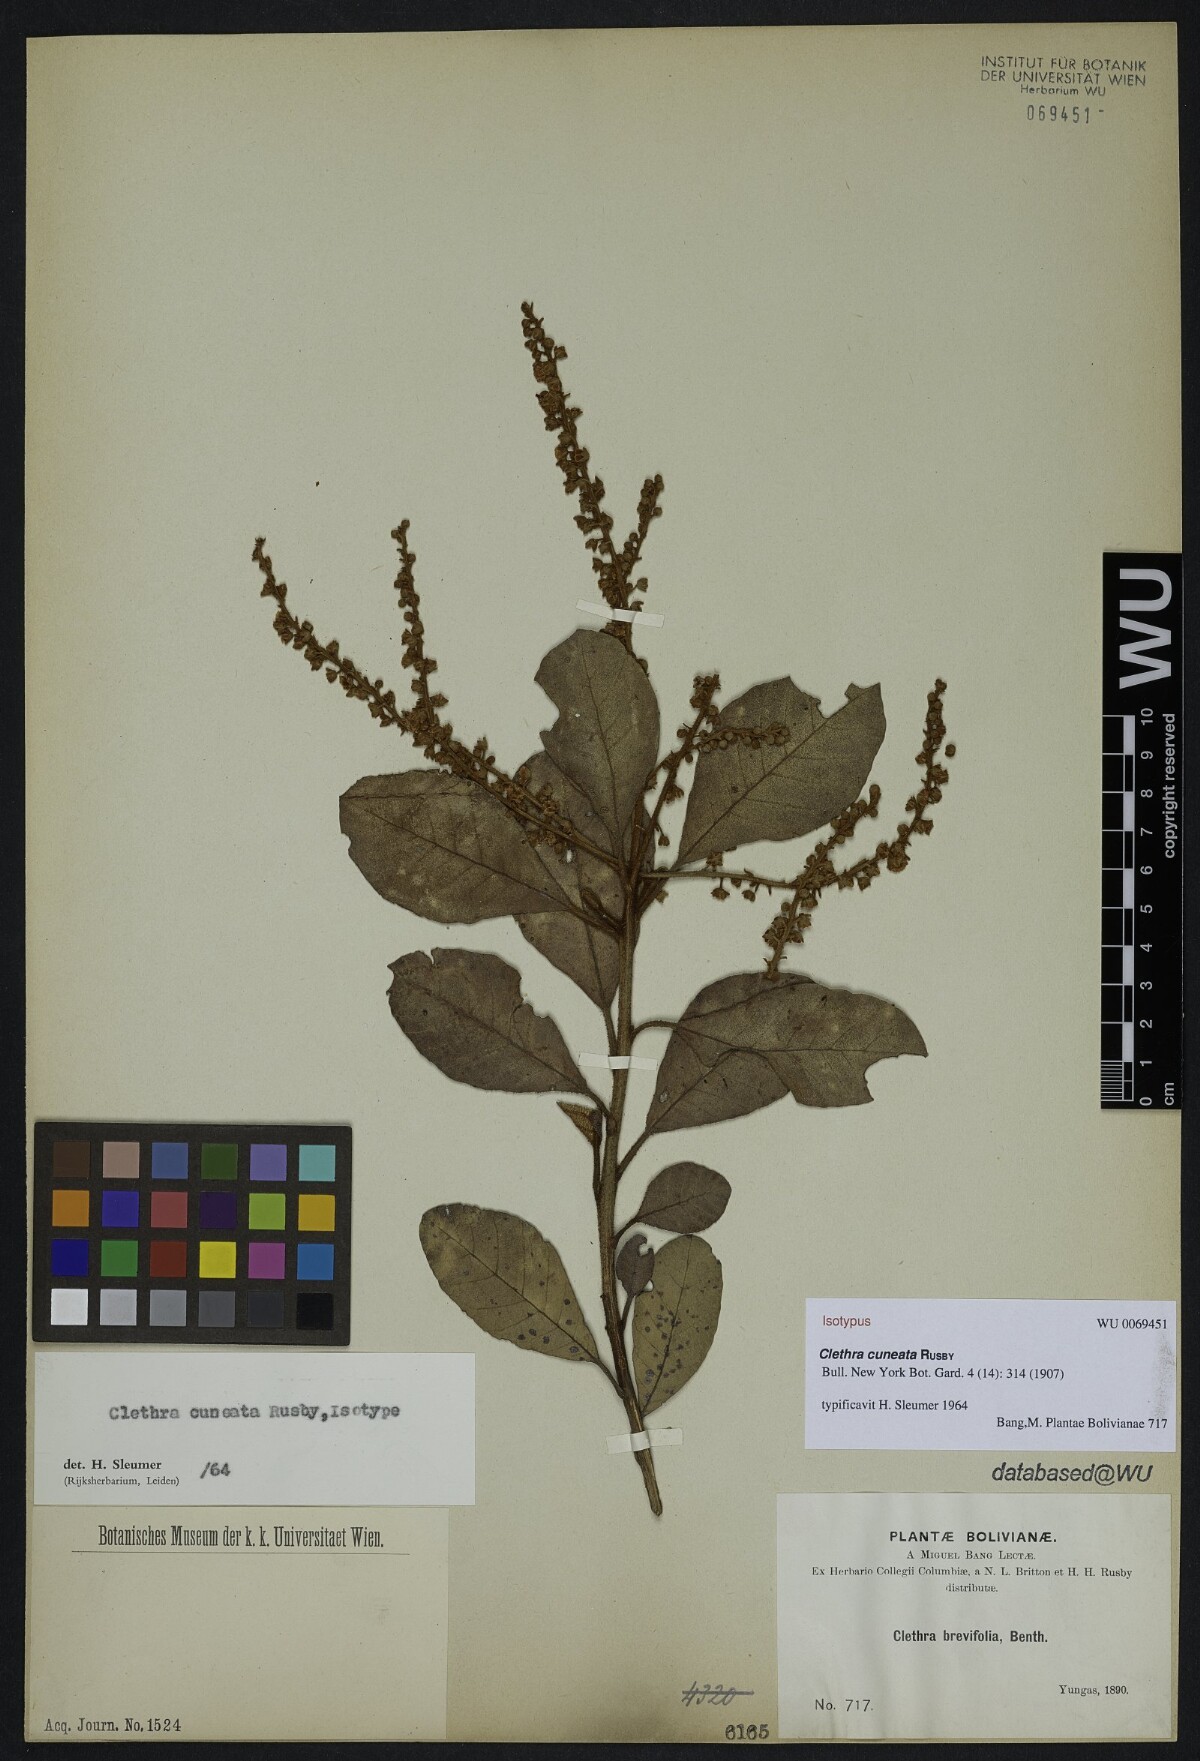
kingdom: Plantae
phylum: Tracheophyta
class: Magnoliopsida
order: Ericales
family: Clethraceae
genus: Clethra
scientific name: Clethra cuneata
